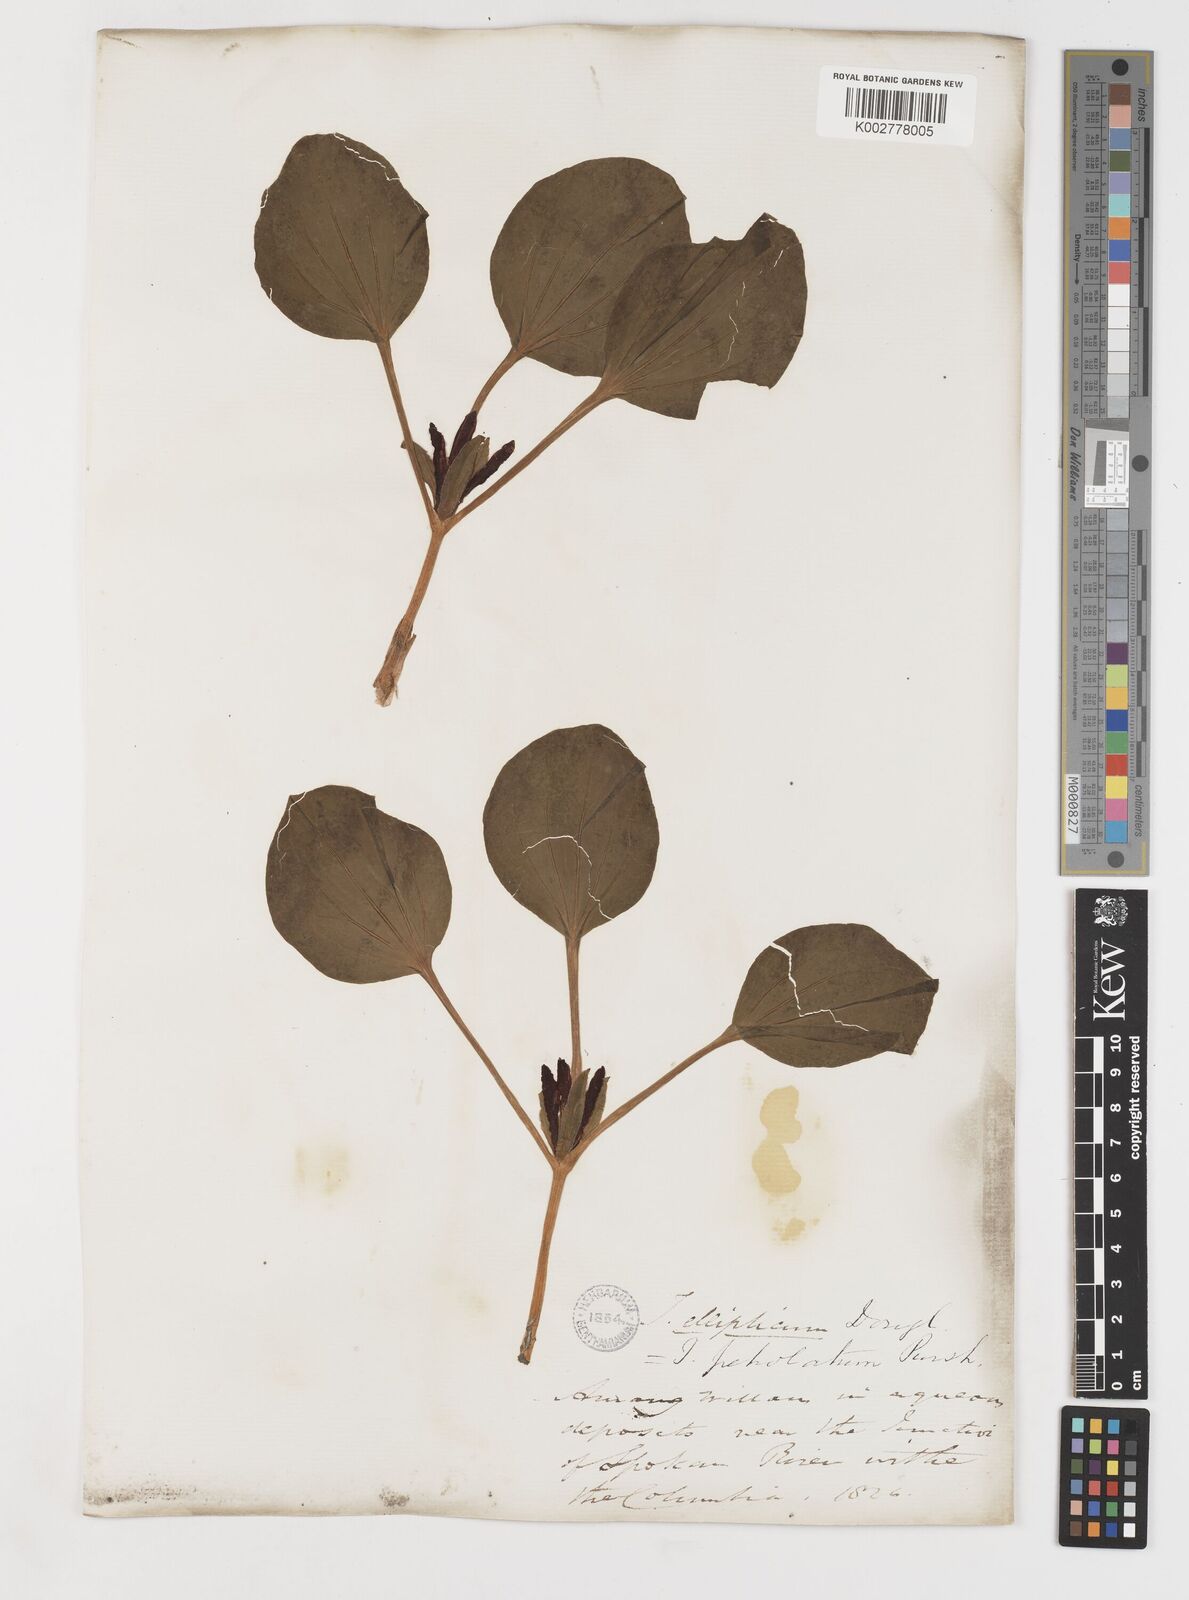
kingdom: Plantae
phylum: Tracheophyta
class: Liliopsida
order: Liliales
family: Melanthiaceae
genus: Trillium
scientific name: Trillium petiolatum
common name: Idaho trillium
